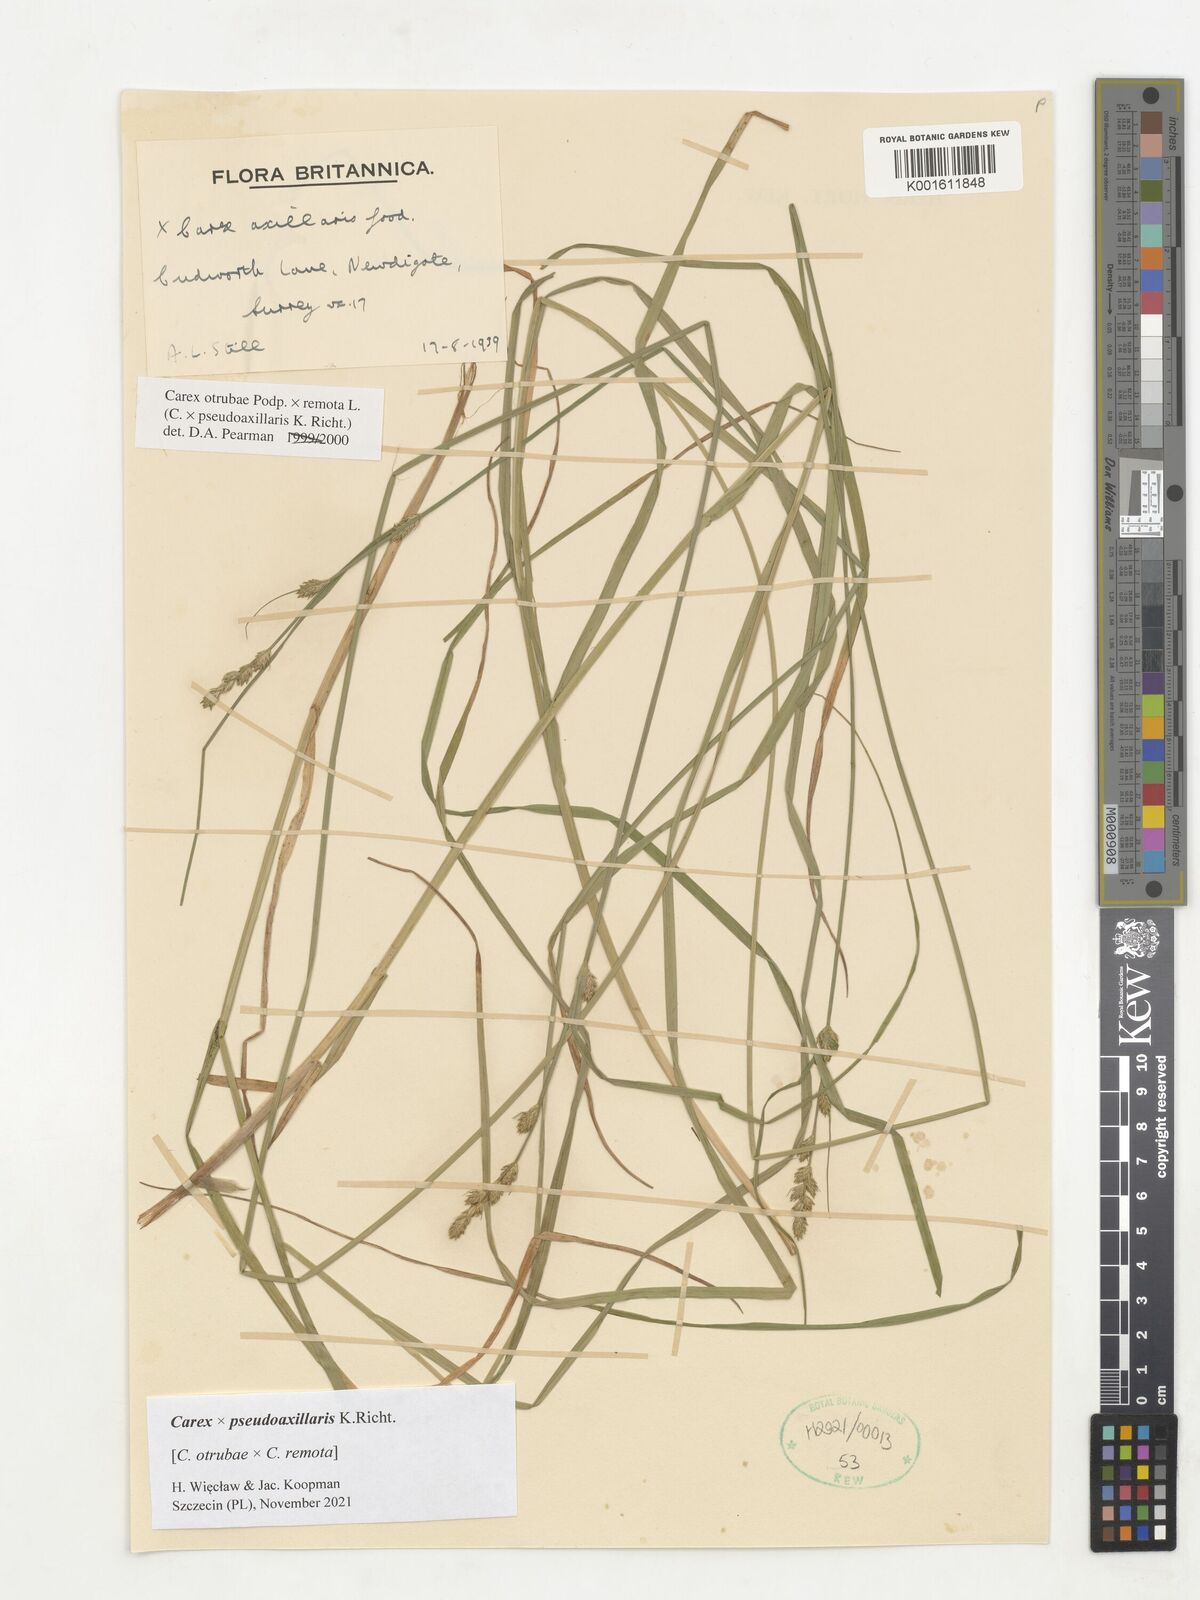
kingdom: Plantae
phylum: Tracheophyta
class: Liliopsida
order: Poales
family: Cyperaceae
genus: Carex
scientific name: Carex pseudoaxillaris
